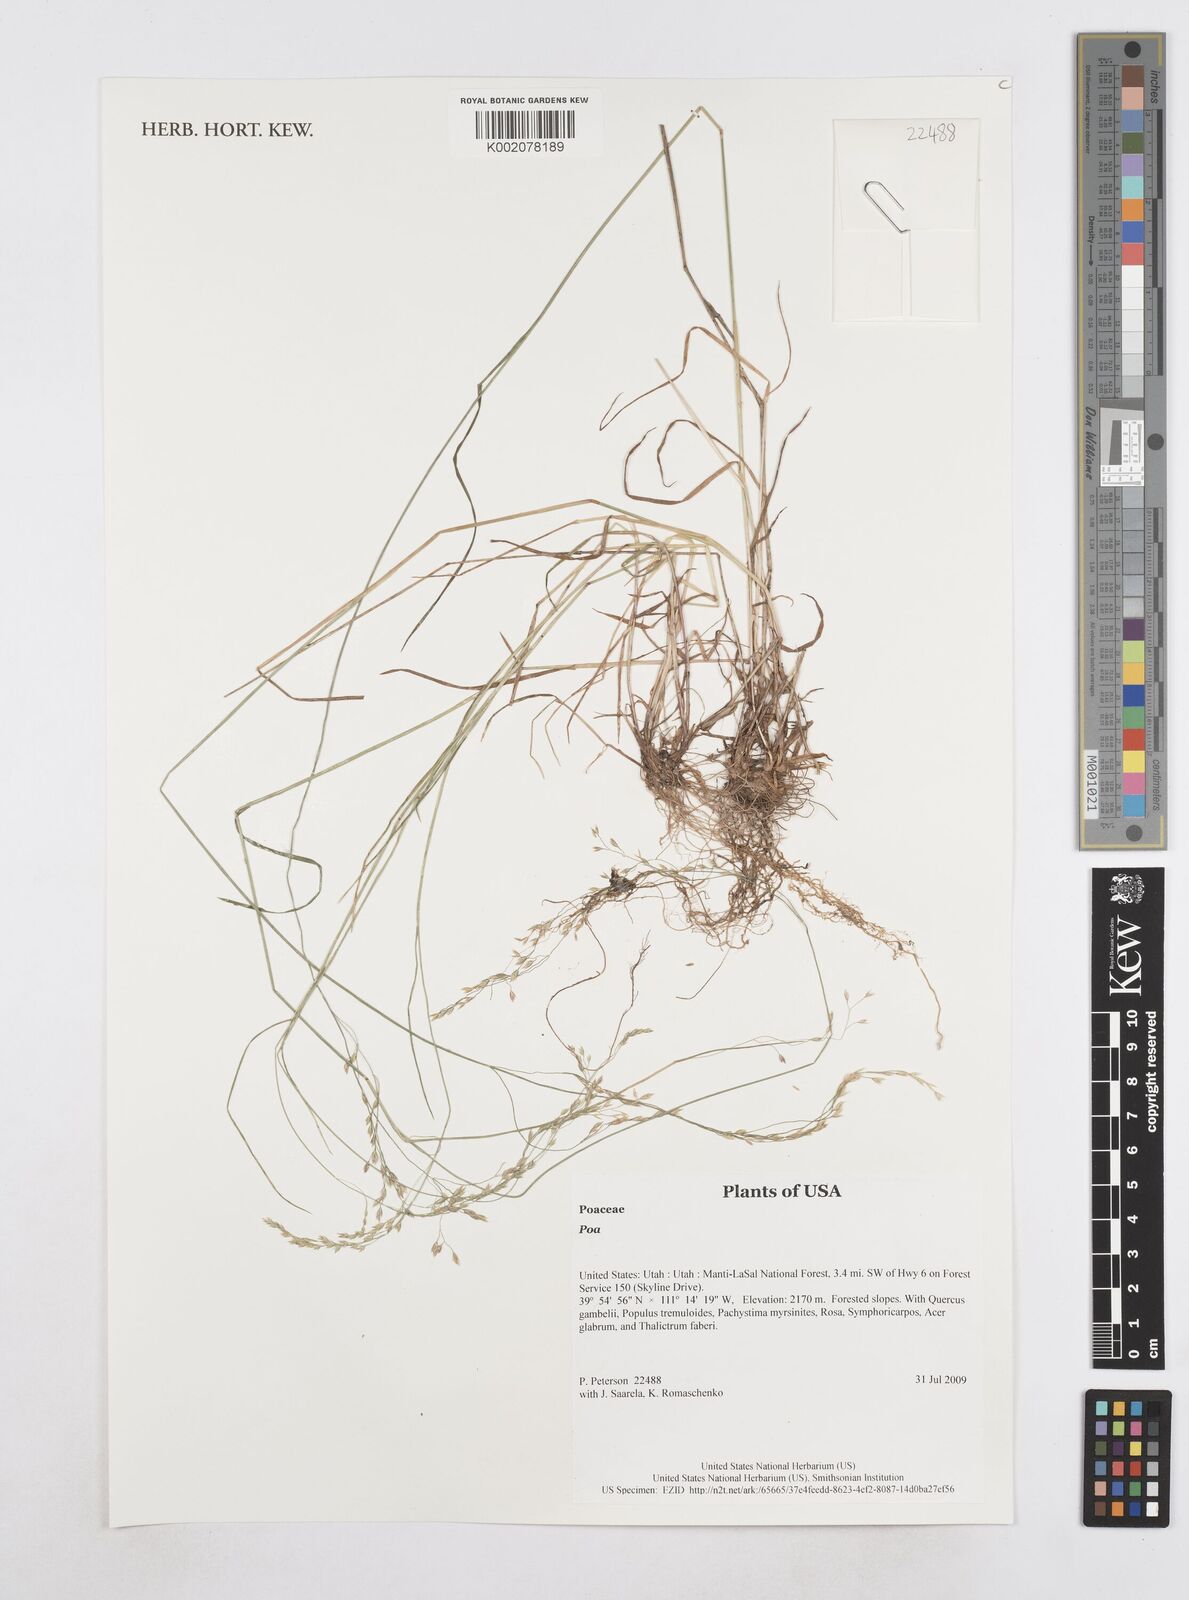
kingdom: Plantae
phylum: Tracheophyta
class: Liliopsida
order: Poales
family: Poaceae
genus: Poa
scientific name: Poa
